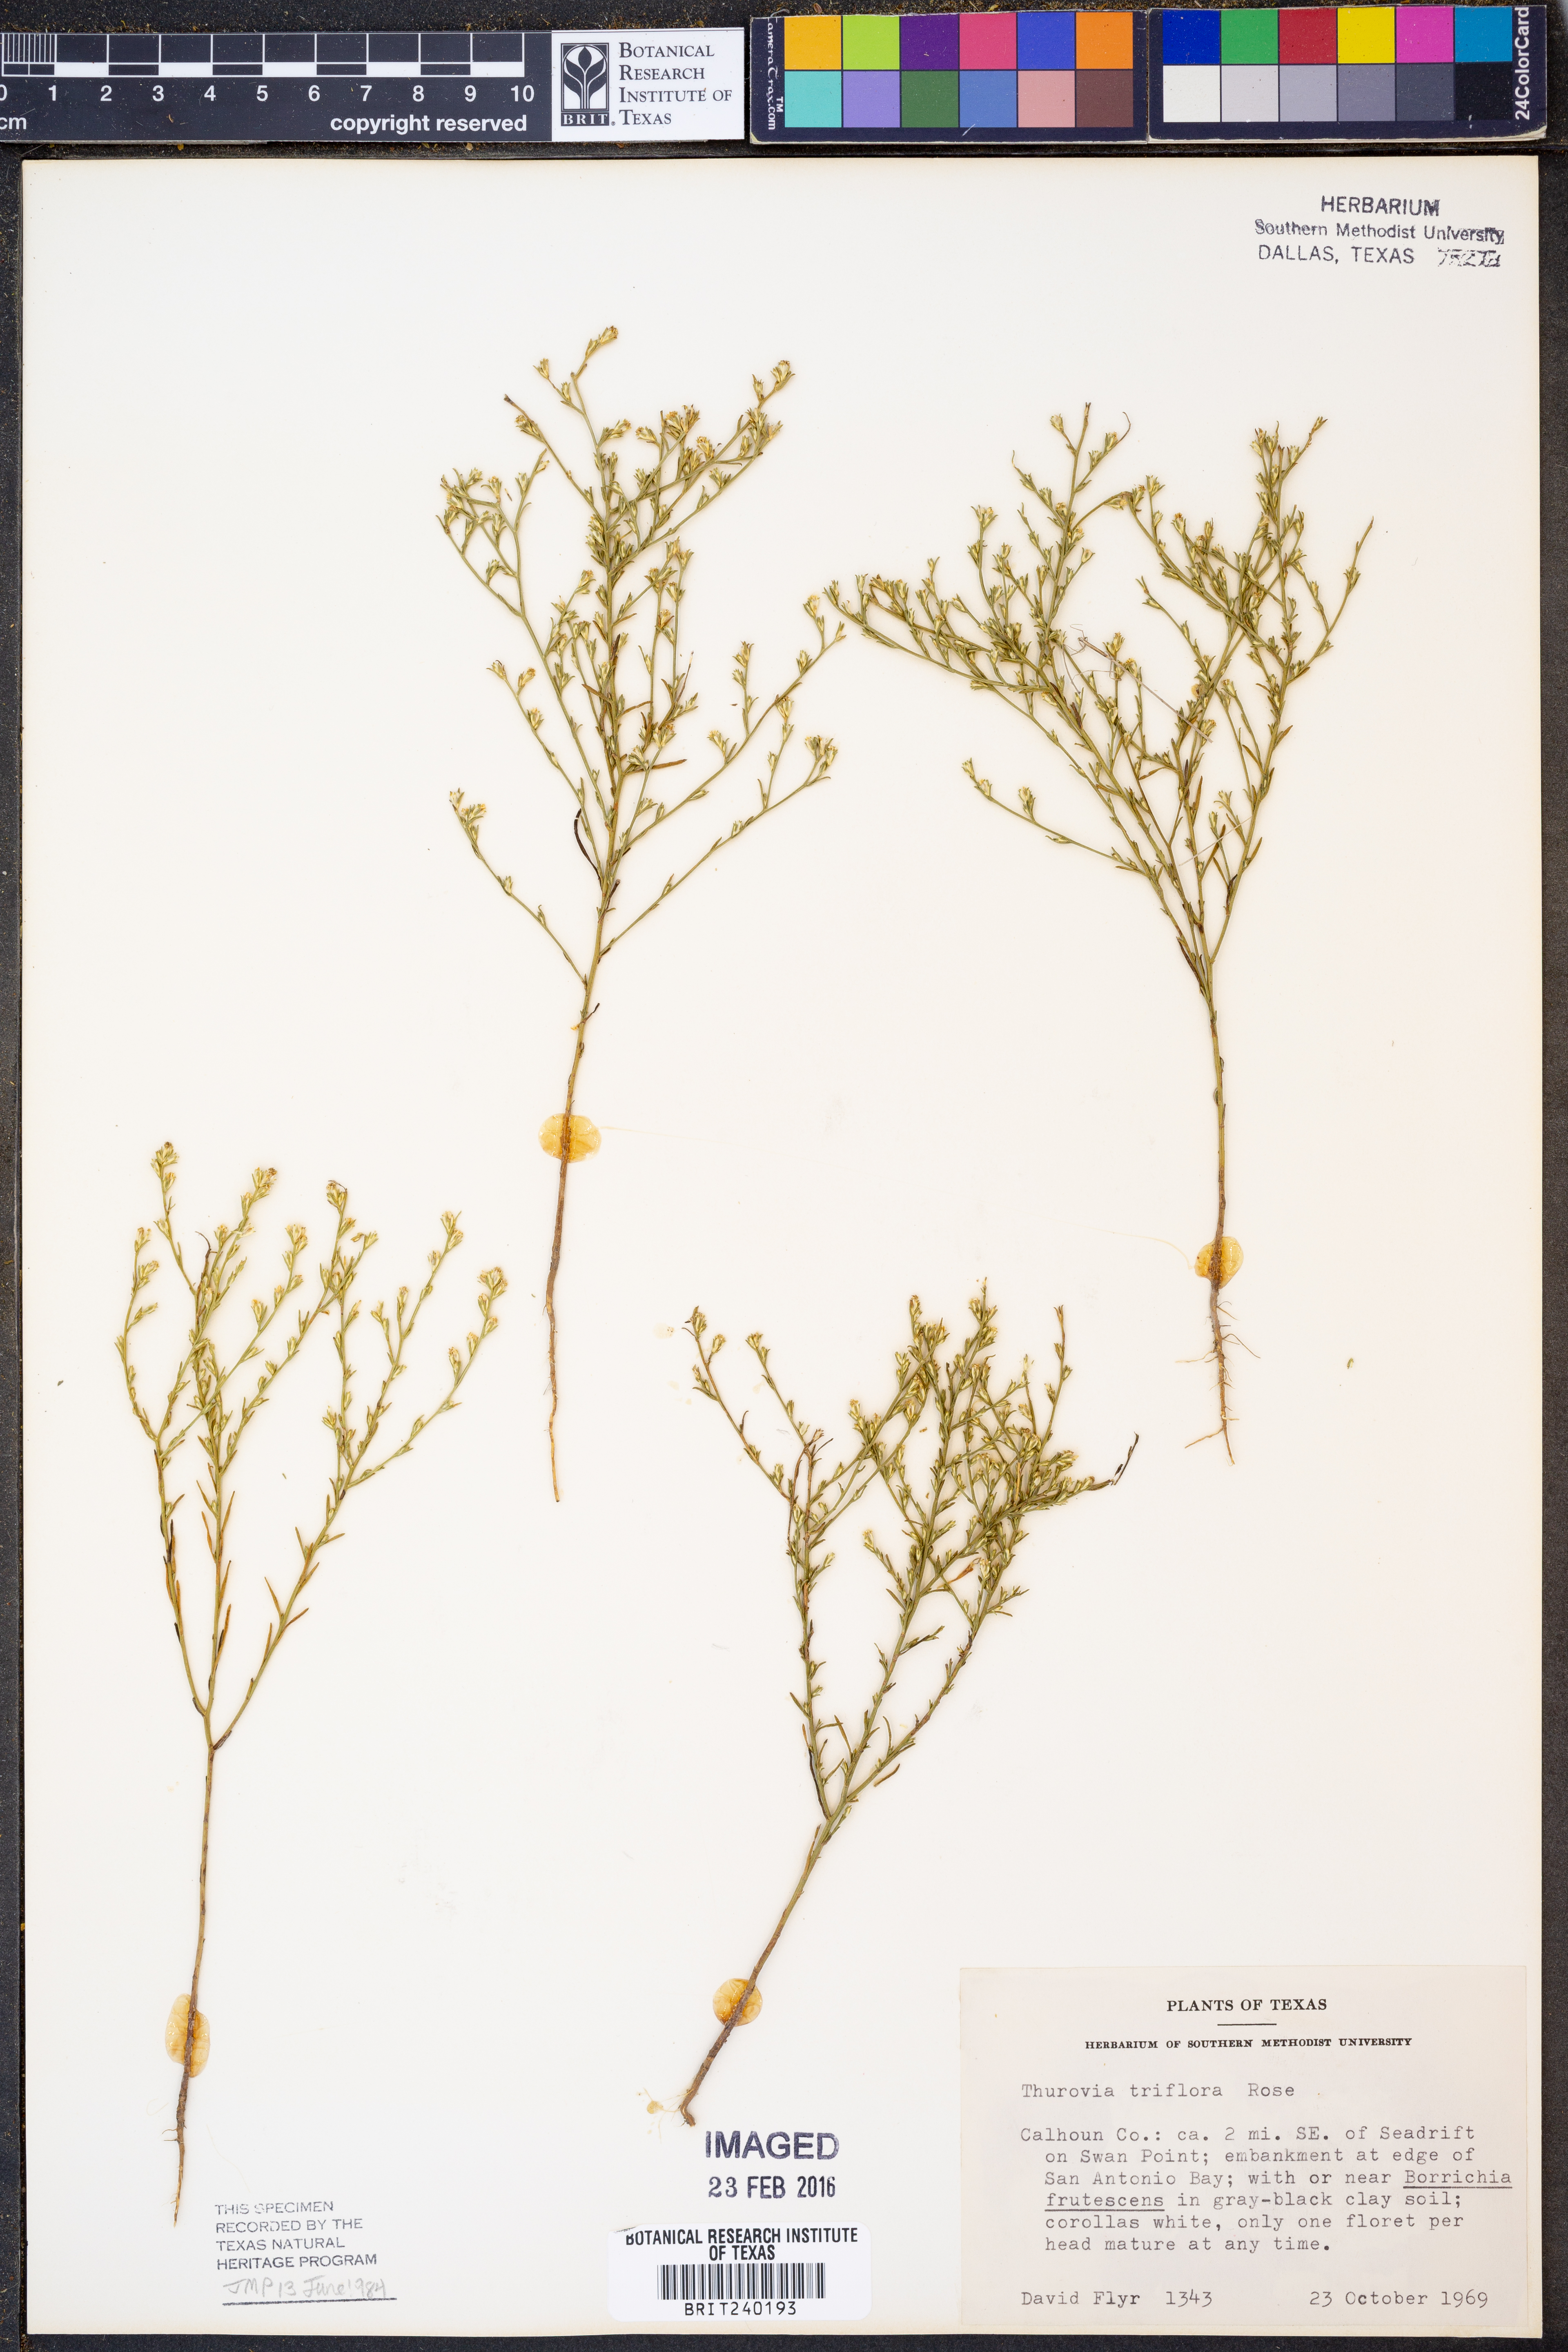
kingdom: Plantae
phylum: Tracheophyta
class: Magnoliopsida
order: Asterales
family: Asteraceae
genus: Thurovia
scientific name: Thurovia triflora
